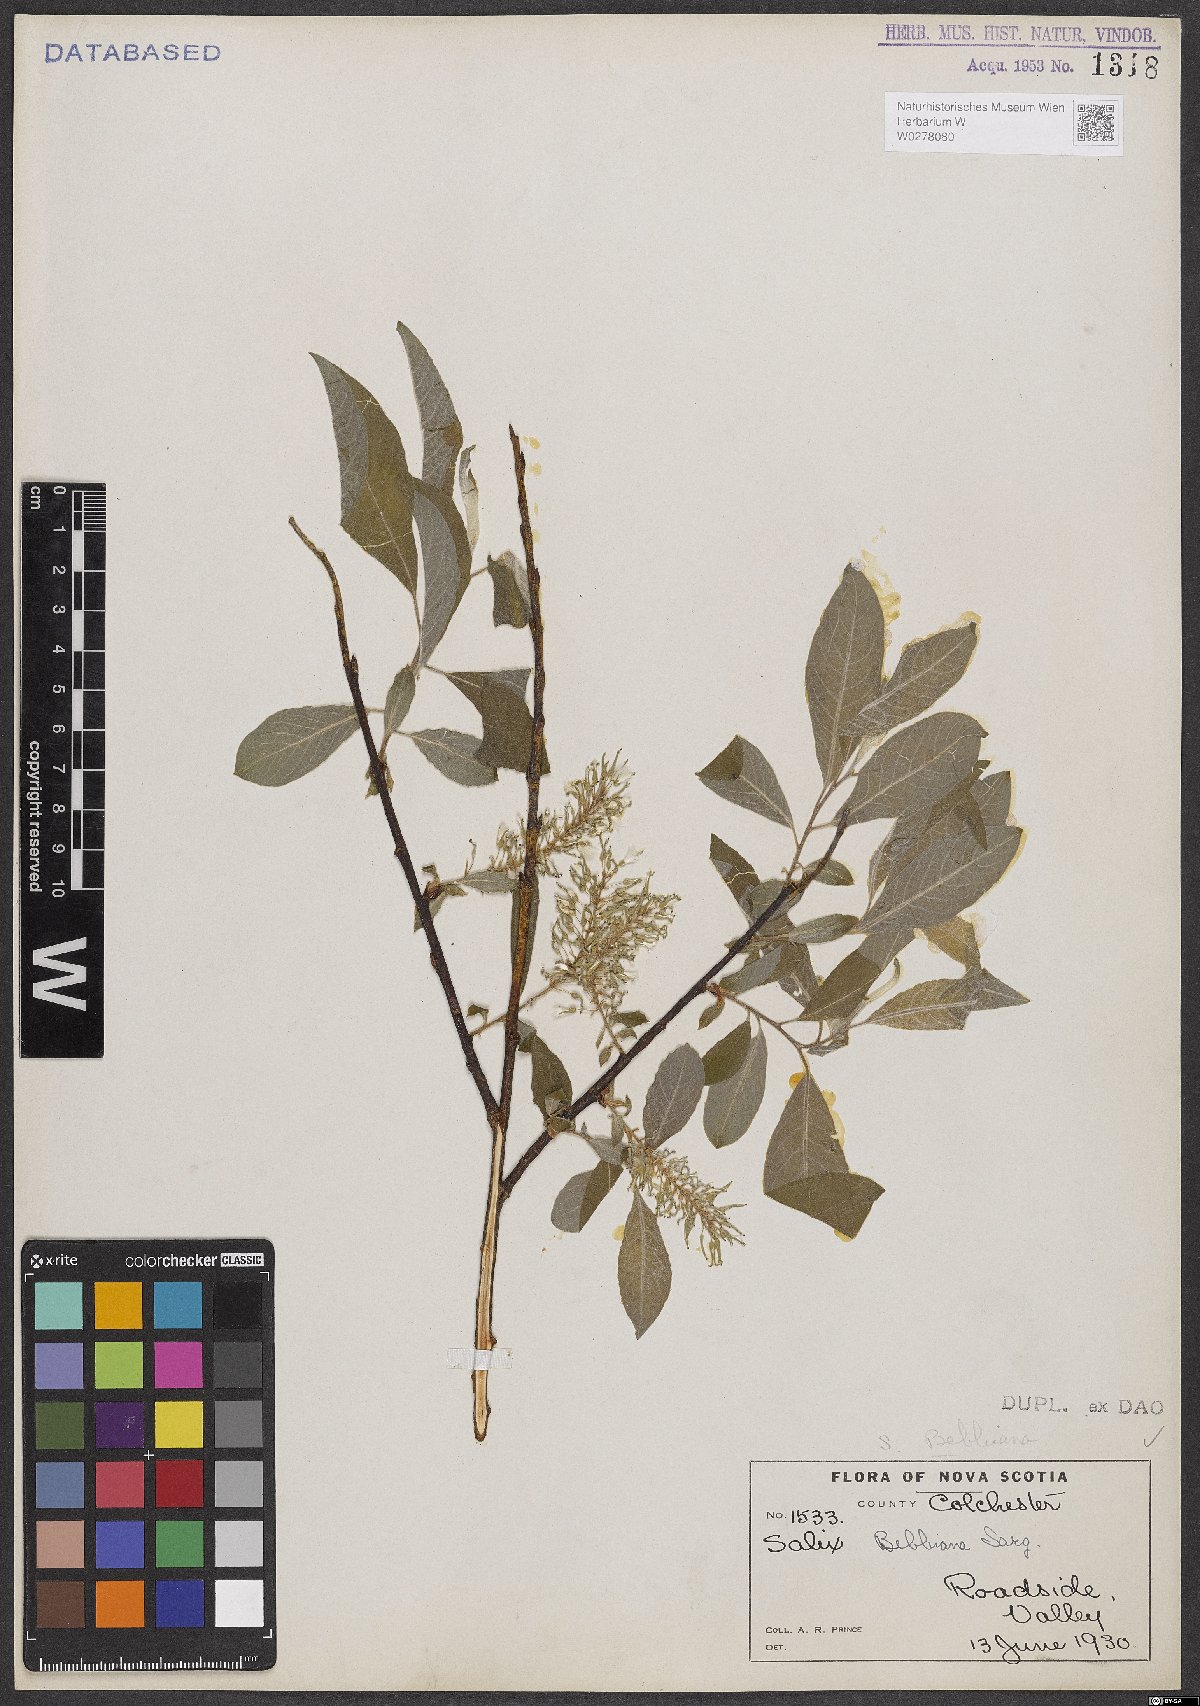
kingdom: Plantae
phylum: Tracheophyta
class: Magnoliopsida
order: Malpighiales
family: Salicaceae
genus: Salix
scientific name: Salix bebbiana
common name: Bebb's willow
